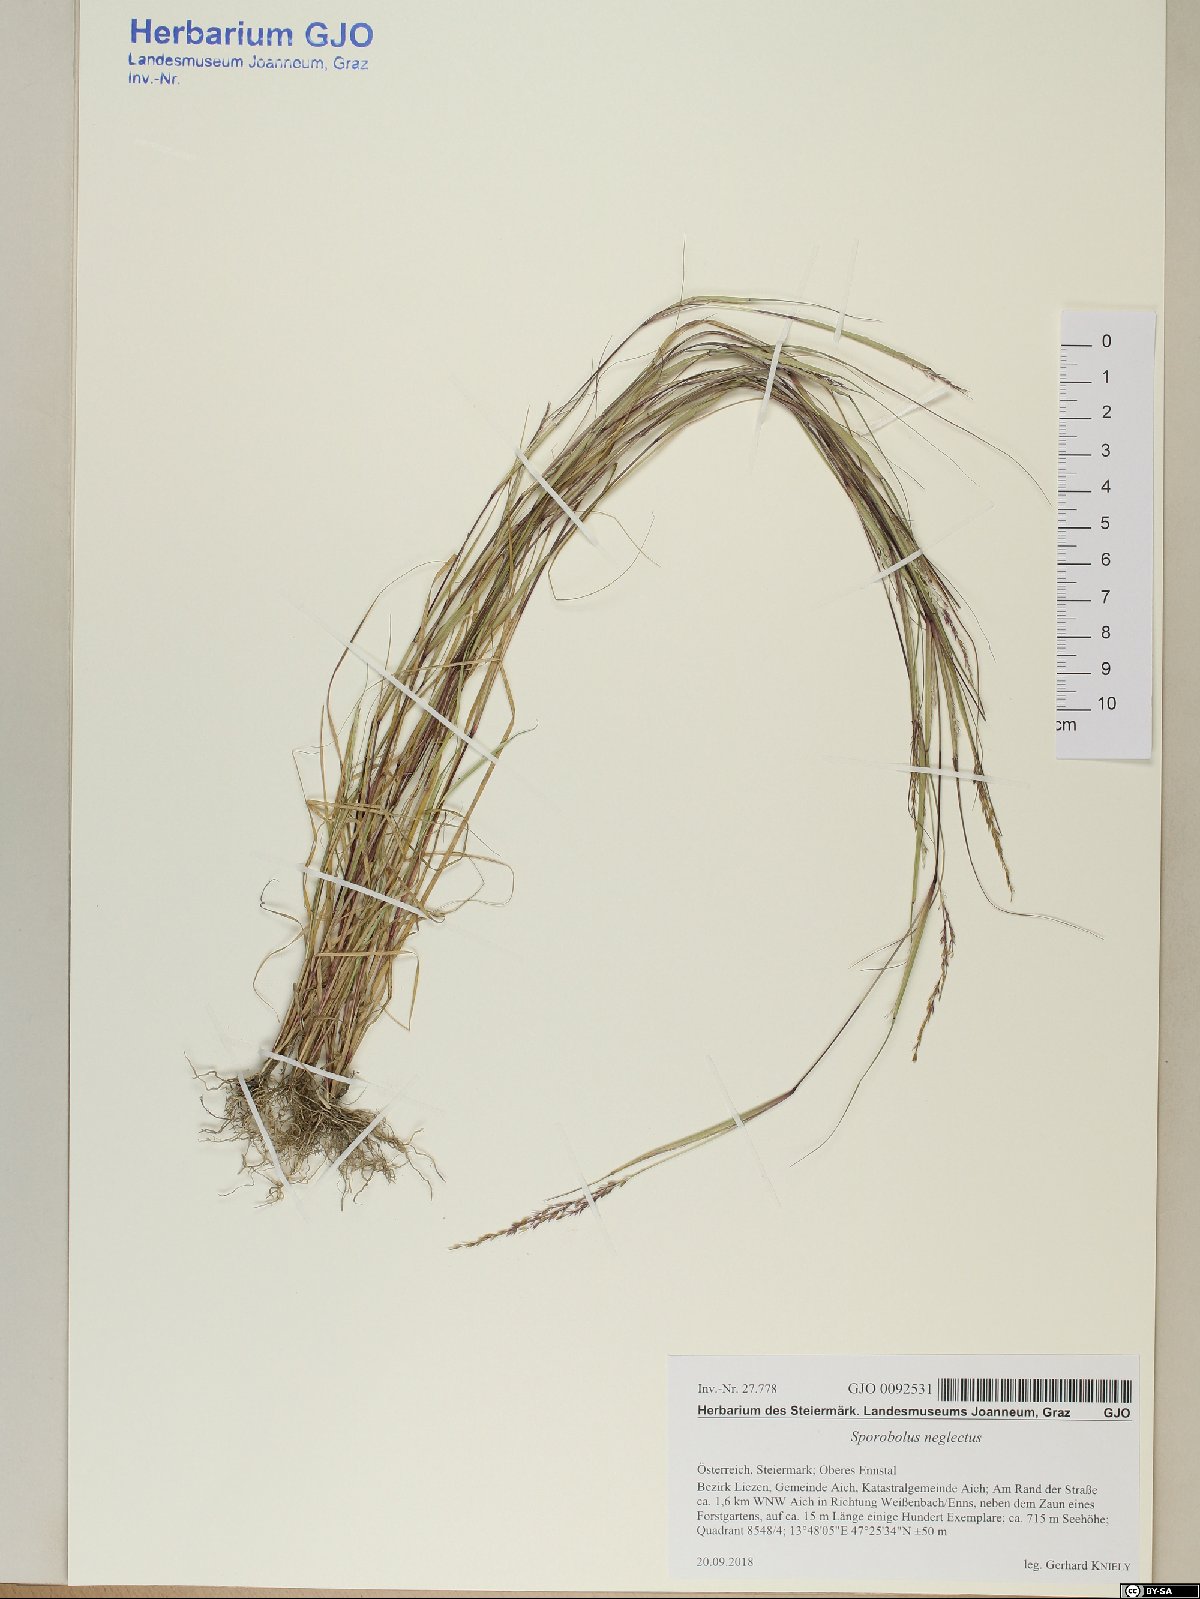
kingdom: Plantae
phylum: Tracheophyta
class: Liliopsida
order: Poales
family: Poaceae
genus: Sporobolus
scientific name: Sporobolus neglectus
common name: Annual dropseed
